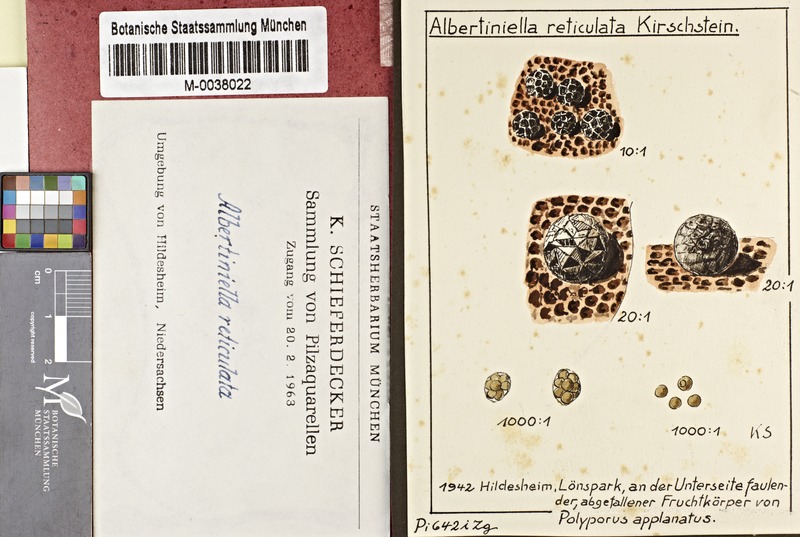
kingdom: Fungi
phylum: Basidiomycota
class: Agaricomycetes
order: Polyporales
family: Polyporaceae
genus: Ganoderma
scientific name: Ganoderma applanatum
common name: Artist's bracket
